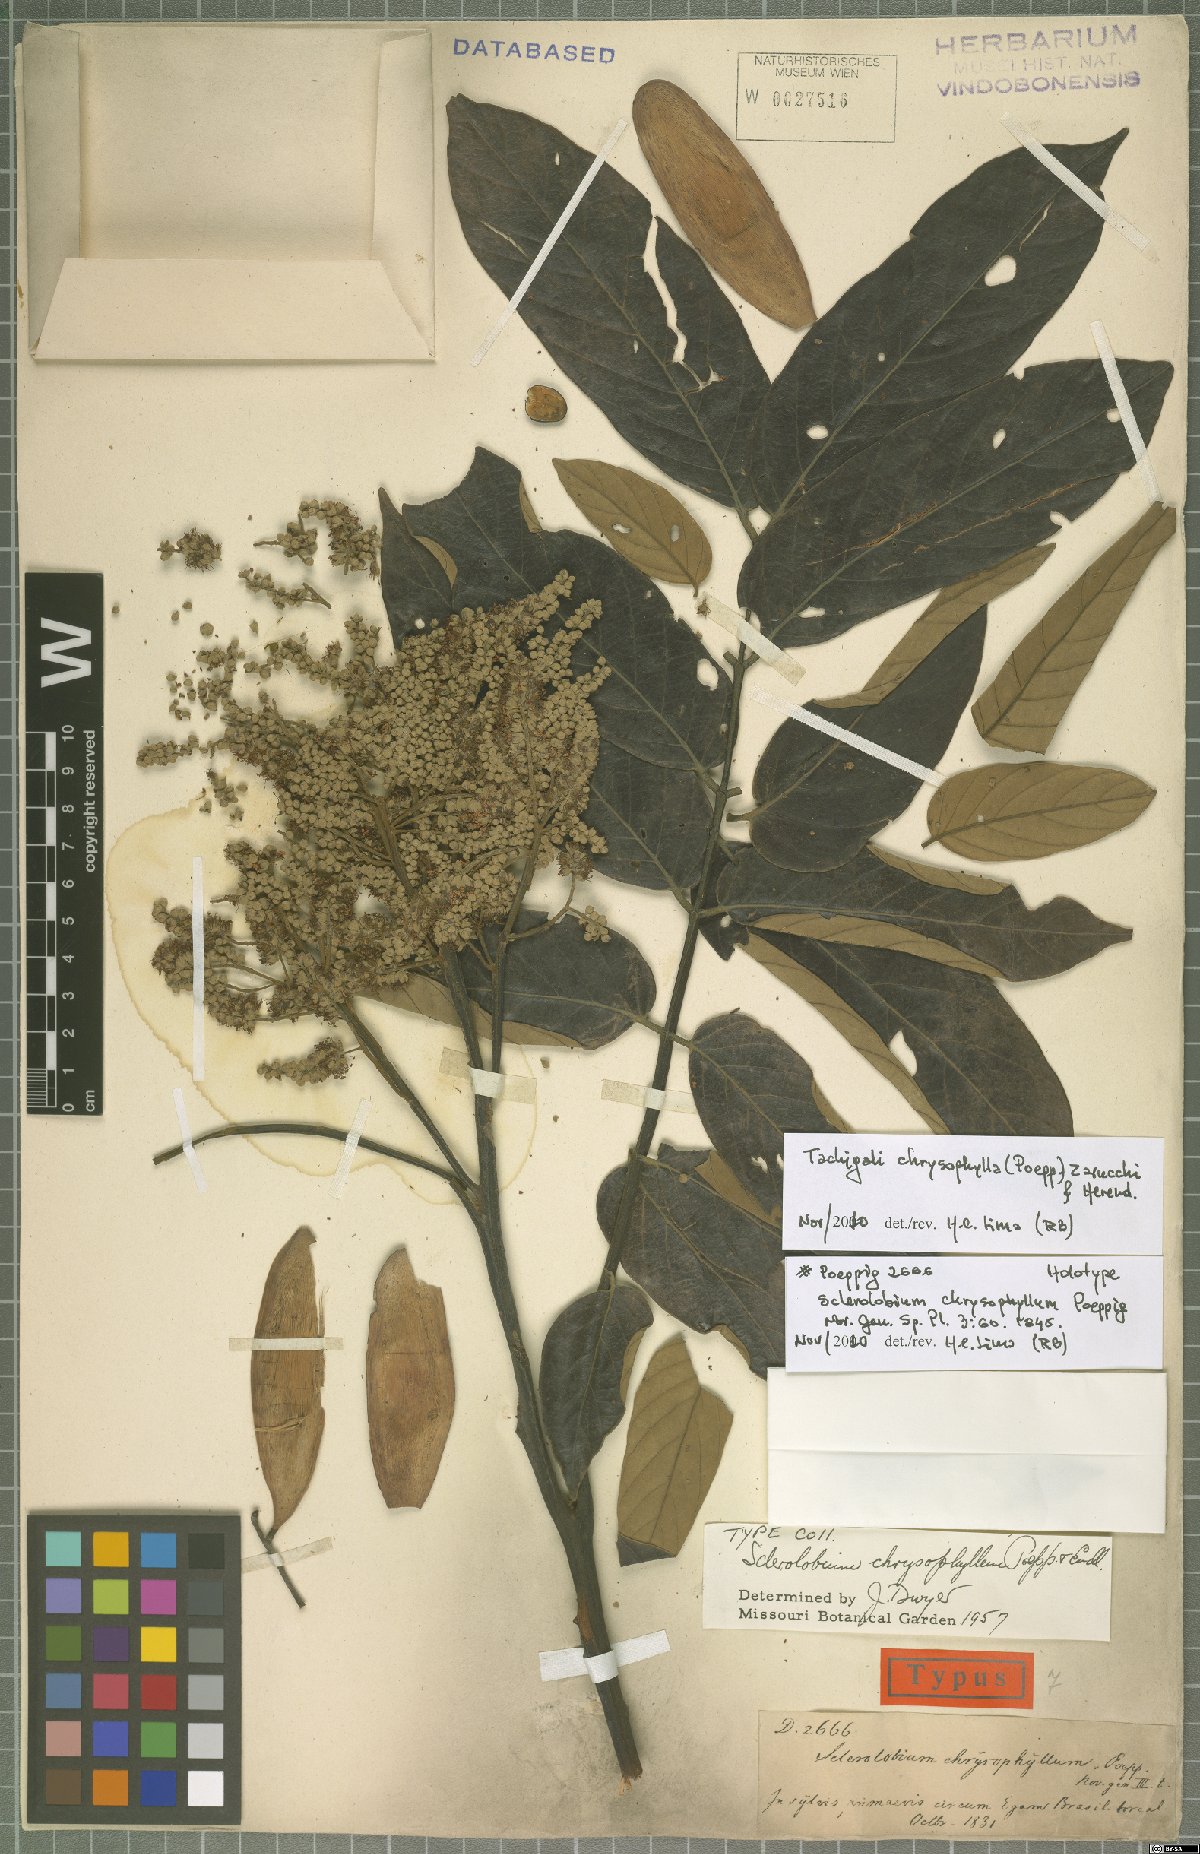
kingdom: Plantae
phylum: Tracheophyta
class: Magnoliopsida
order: Fabales
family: Fabaceae
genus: Tachigali
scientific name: Tachigali chrysophylla
